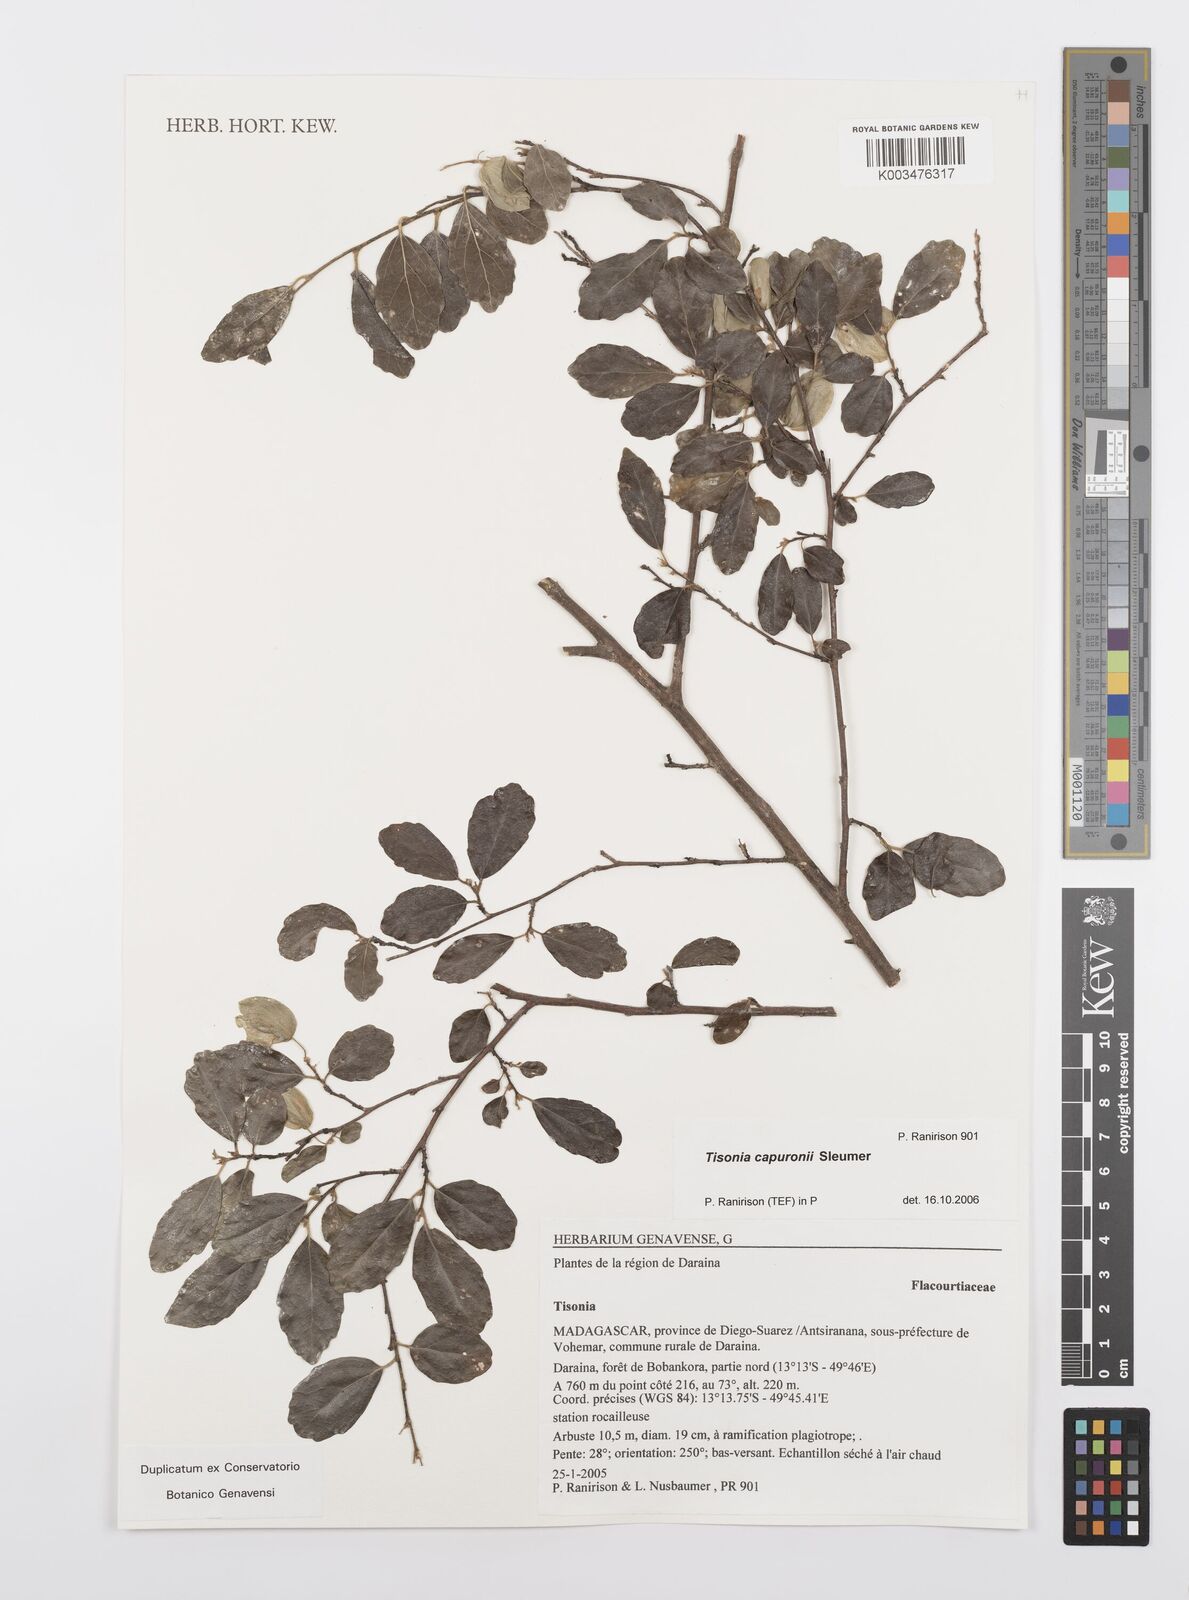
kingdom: Plantae
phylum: Tracheophyta
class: Magnoliopsida
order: Malpighiales
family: Salicaceae
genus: Tisonia
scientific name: Tisonia capuronii
